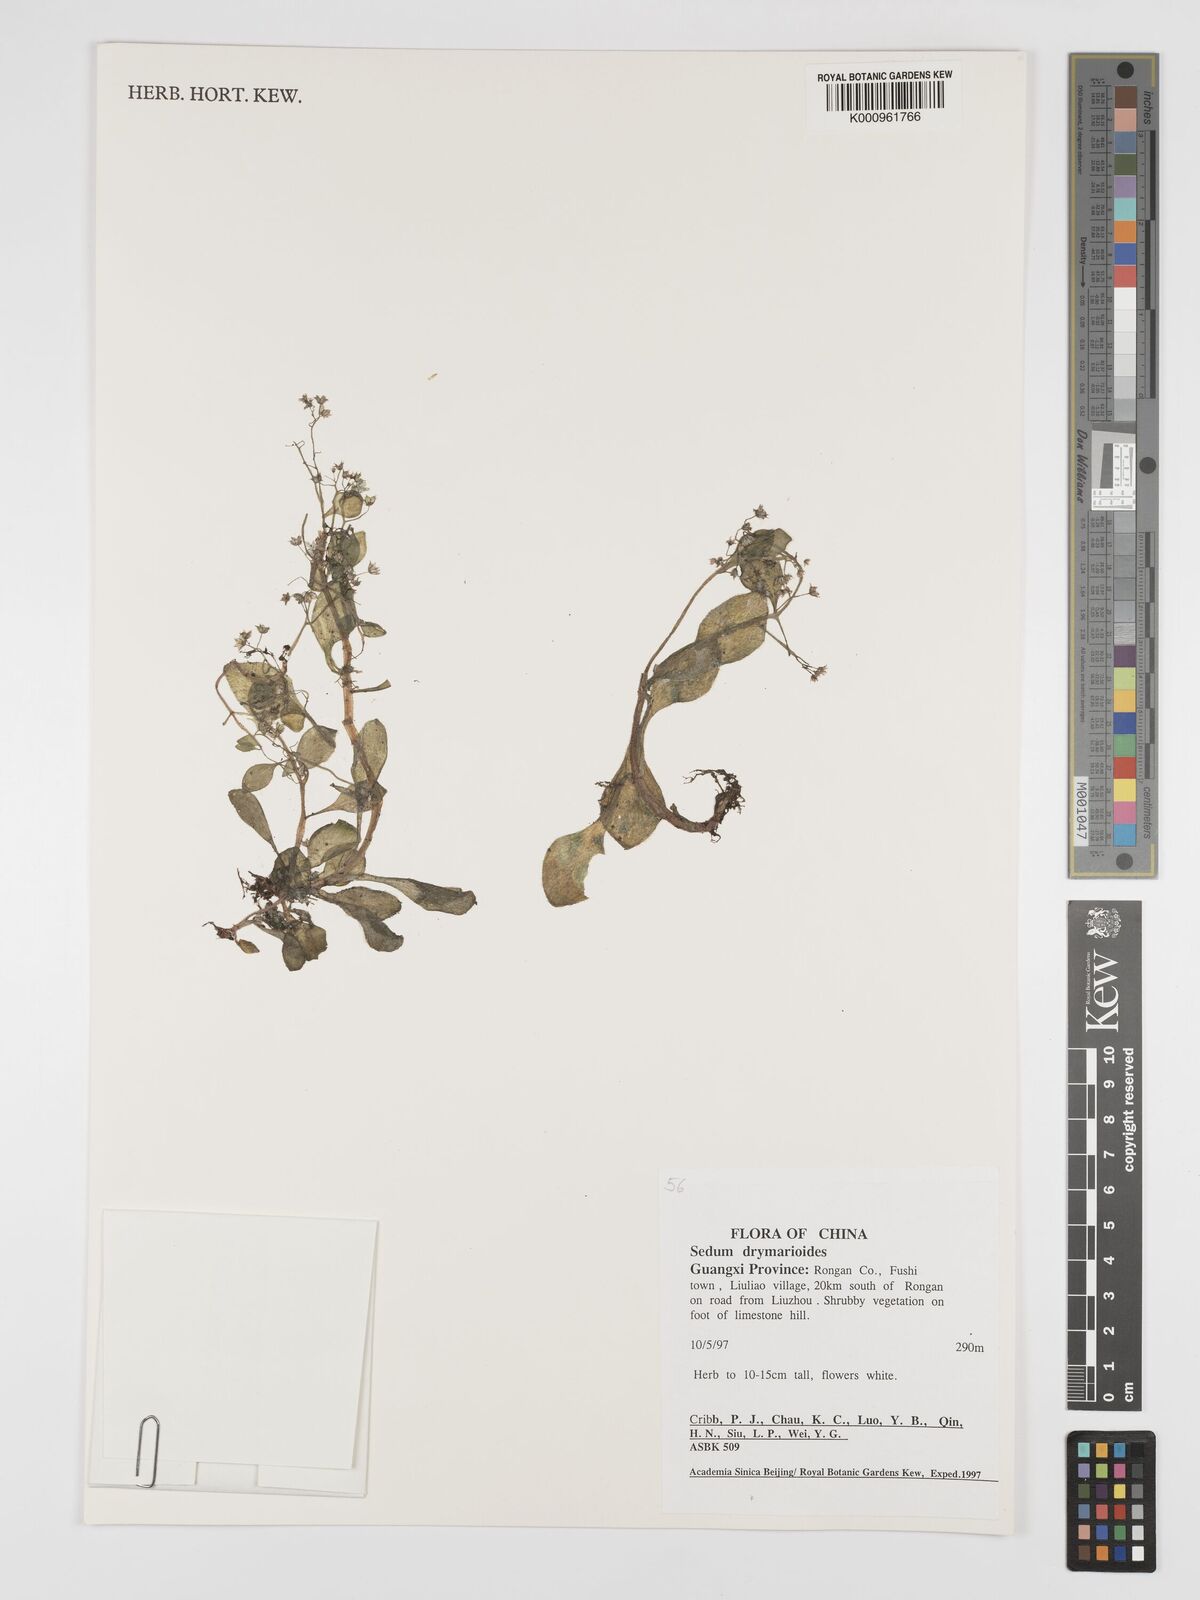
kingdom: Plantae
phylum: Tracheophyta
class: Magnoliopsida
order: Saxifragales
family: Crassulaceae
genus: Sedum
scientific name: Sedum drymarioides
